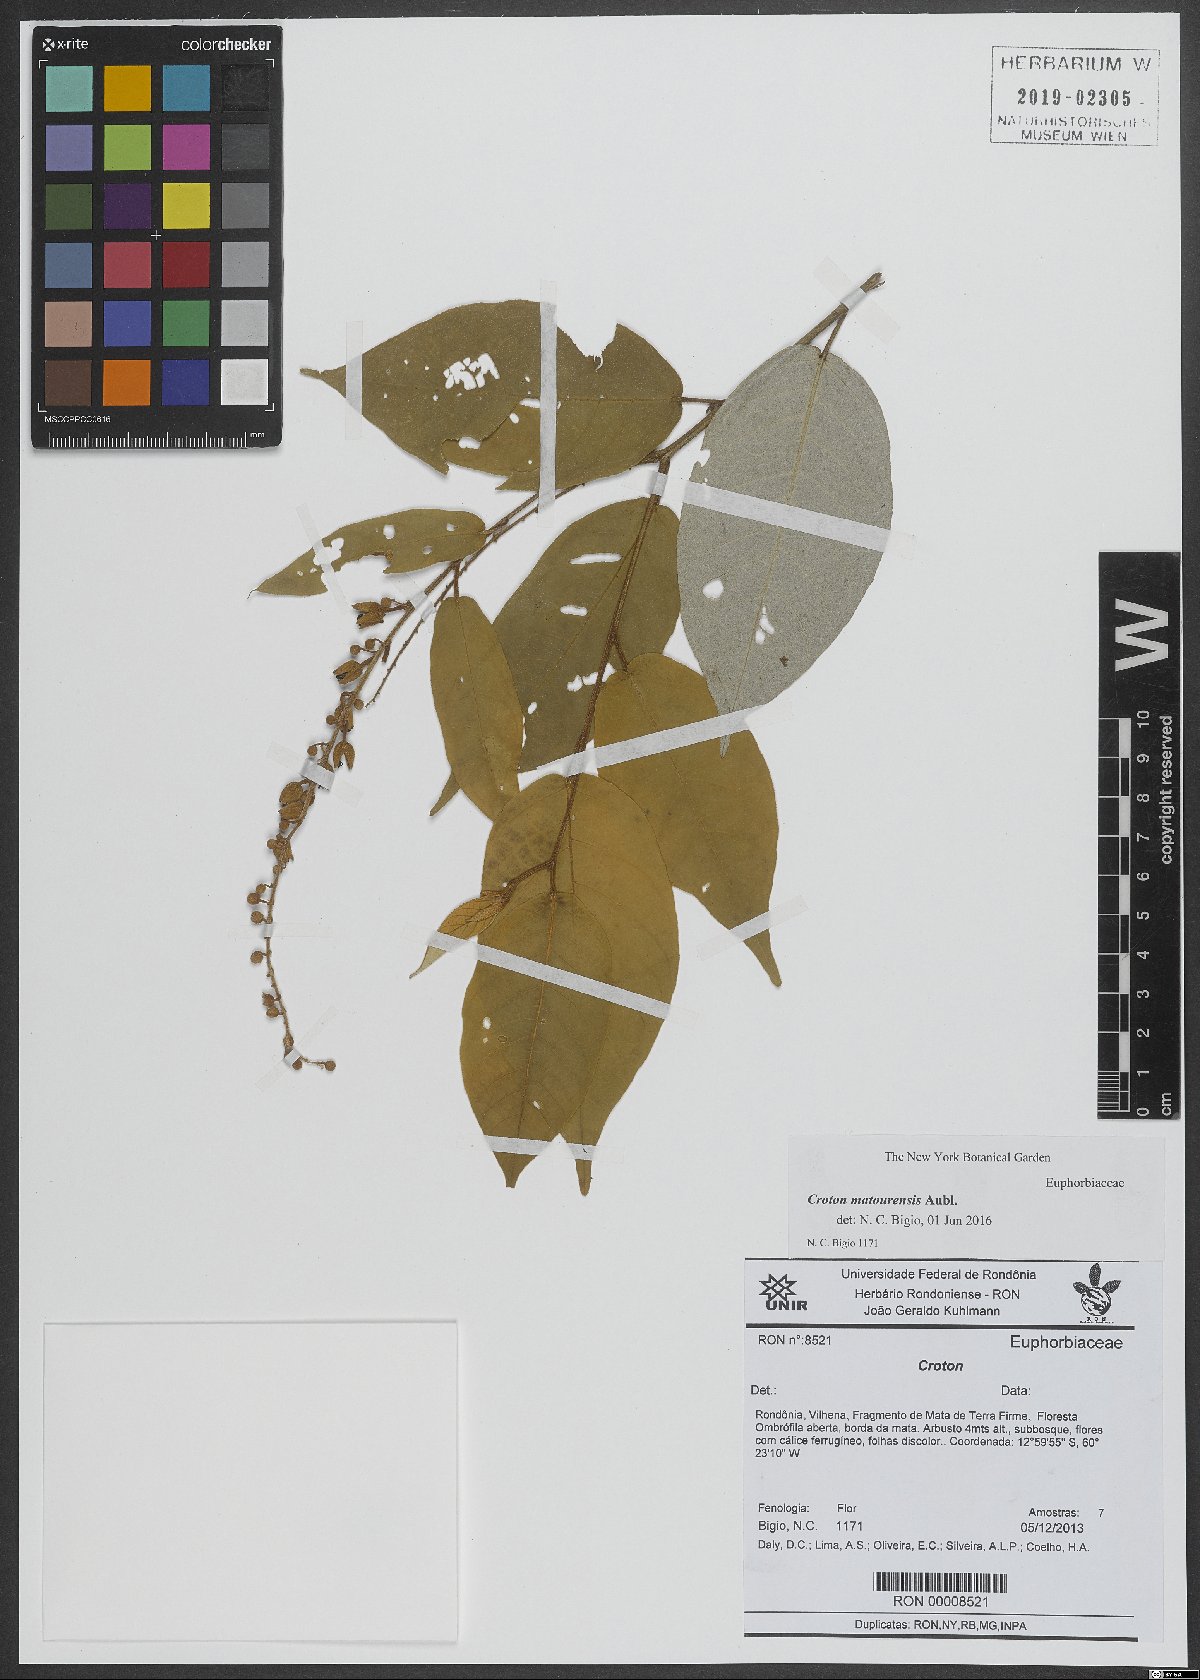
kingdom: Plantae
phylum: Tracheophyta
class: Magnoliopsida
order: Malpighiales
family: Euphorbiaceae
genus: Croton
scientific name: Croton matourensis
